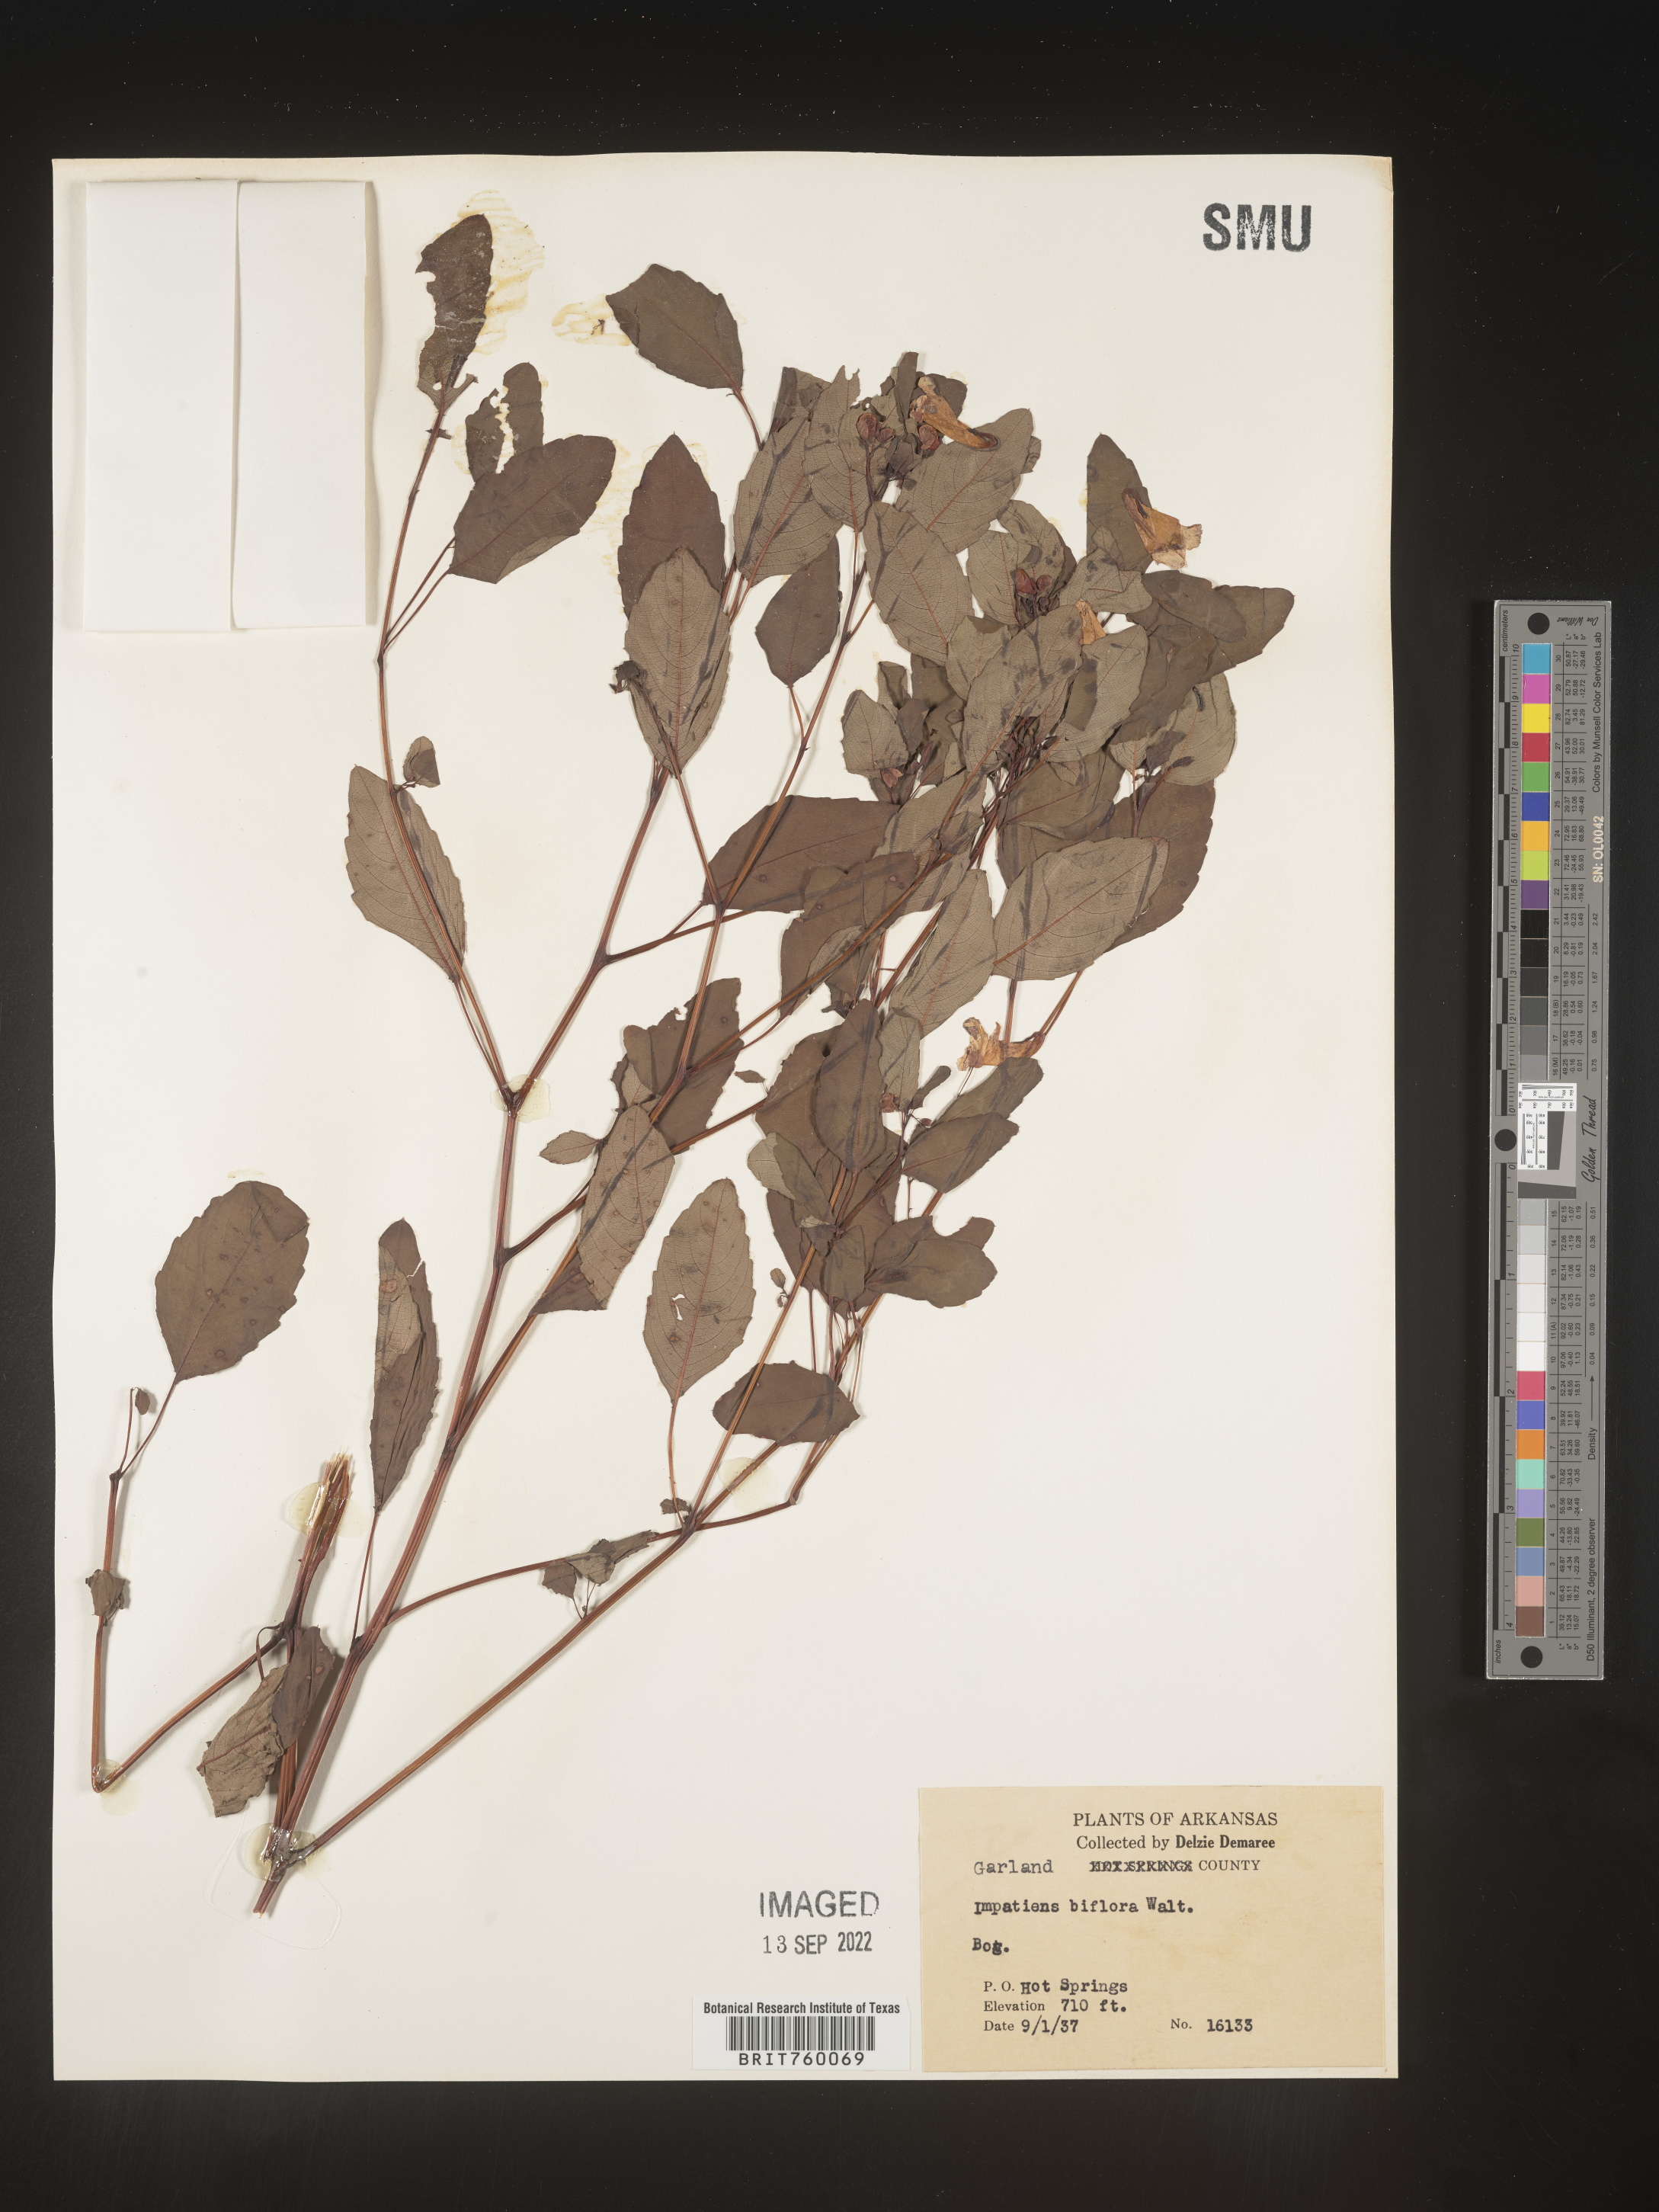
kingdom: Plantae
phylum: Tracheophyta
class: Magnoliopsida
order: Ericales
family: Balsaminaceae
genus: Impatiens
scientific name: Impatiens capensis
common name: Orange balsam
